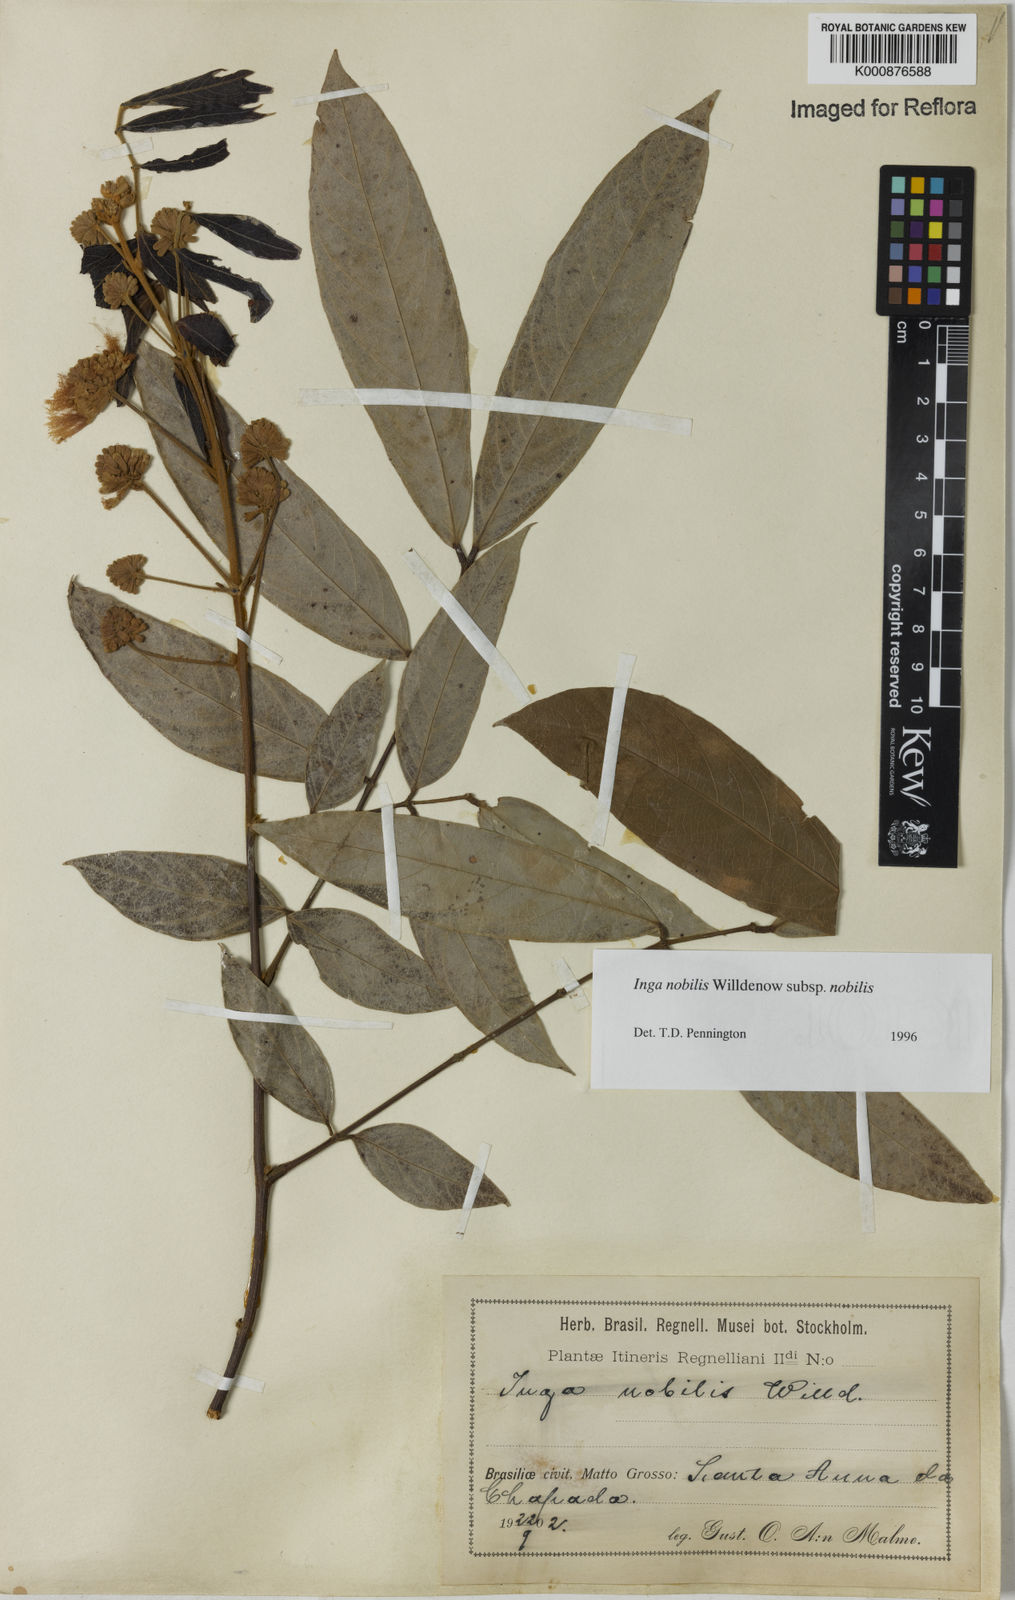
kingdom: Plantae
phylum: Tracheophyta
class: Magnoliopsida
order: Fabales
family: Fabaceae
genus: Inga
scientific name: Inga nobilis
